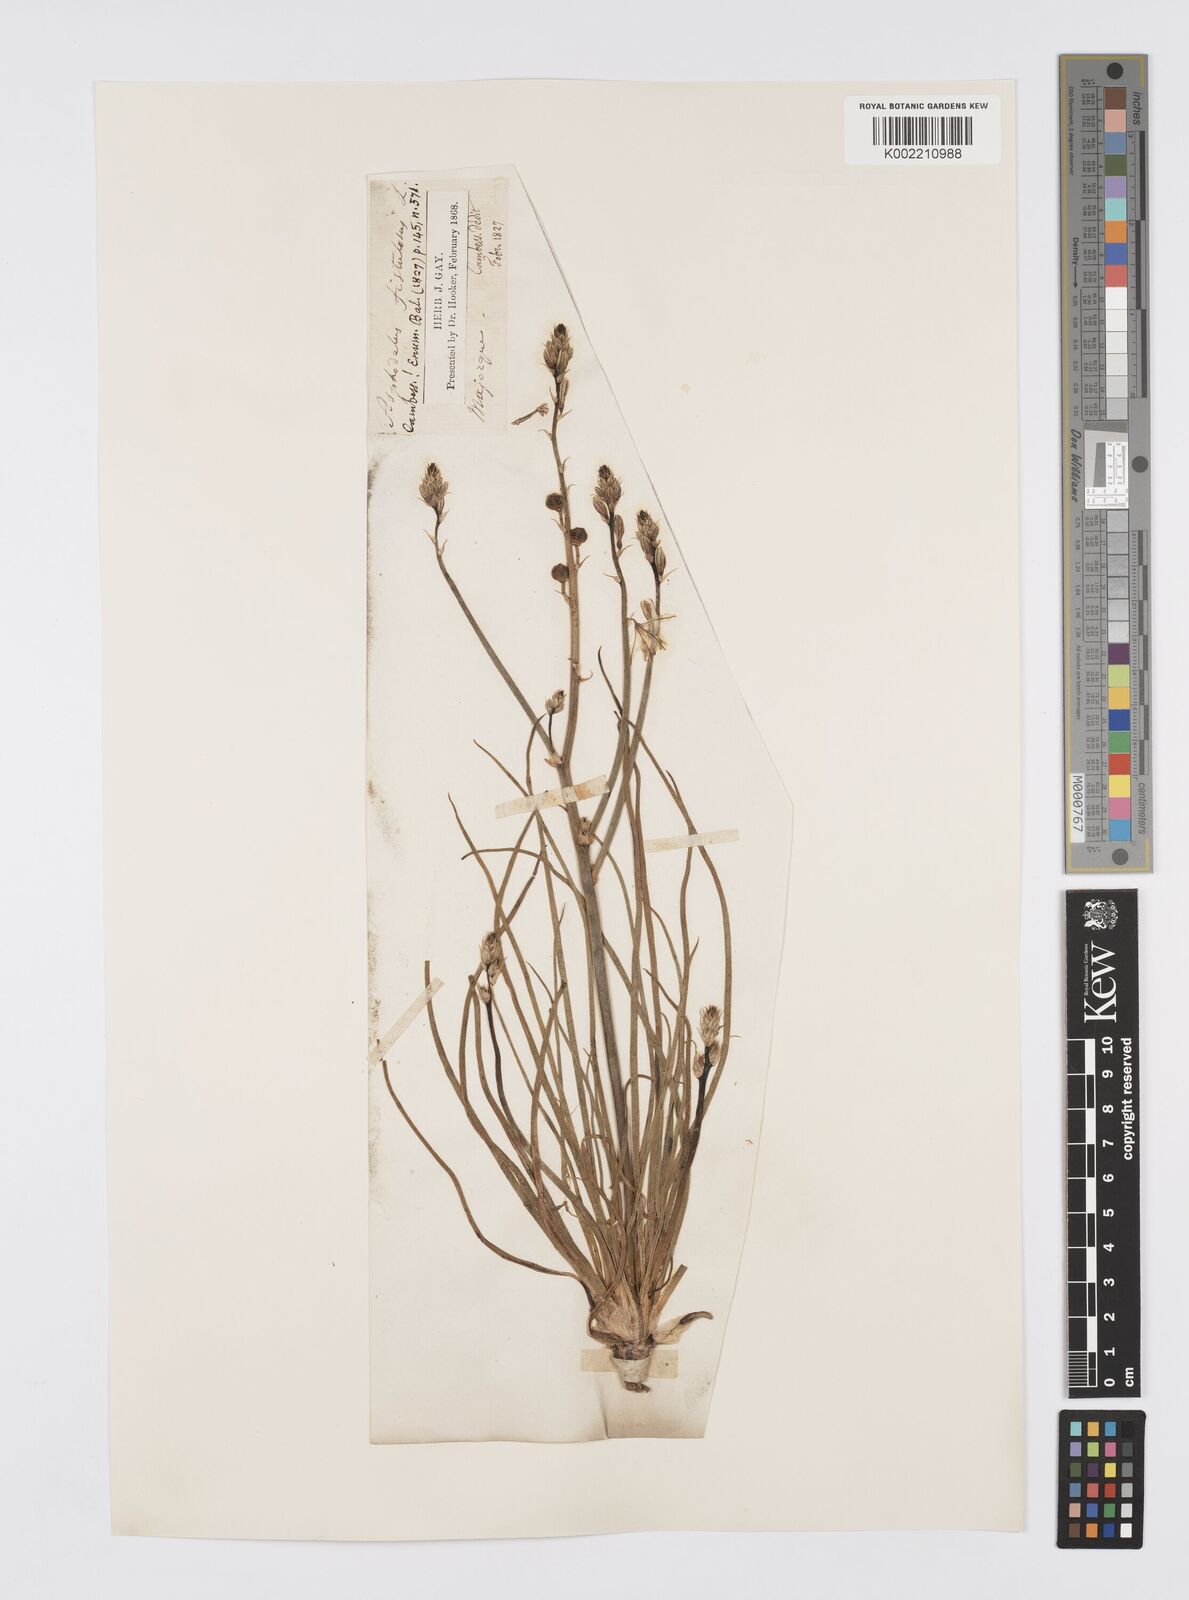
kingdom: Plantae
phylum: Tracheophyta
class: Liliopsida
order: Asparagales
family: Asphodelaceae
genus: Asphodelus
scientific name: Asphodelus fistulosus
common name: Onionweed
